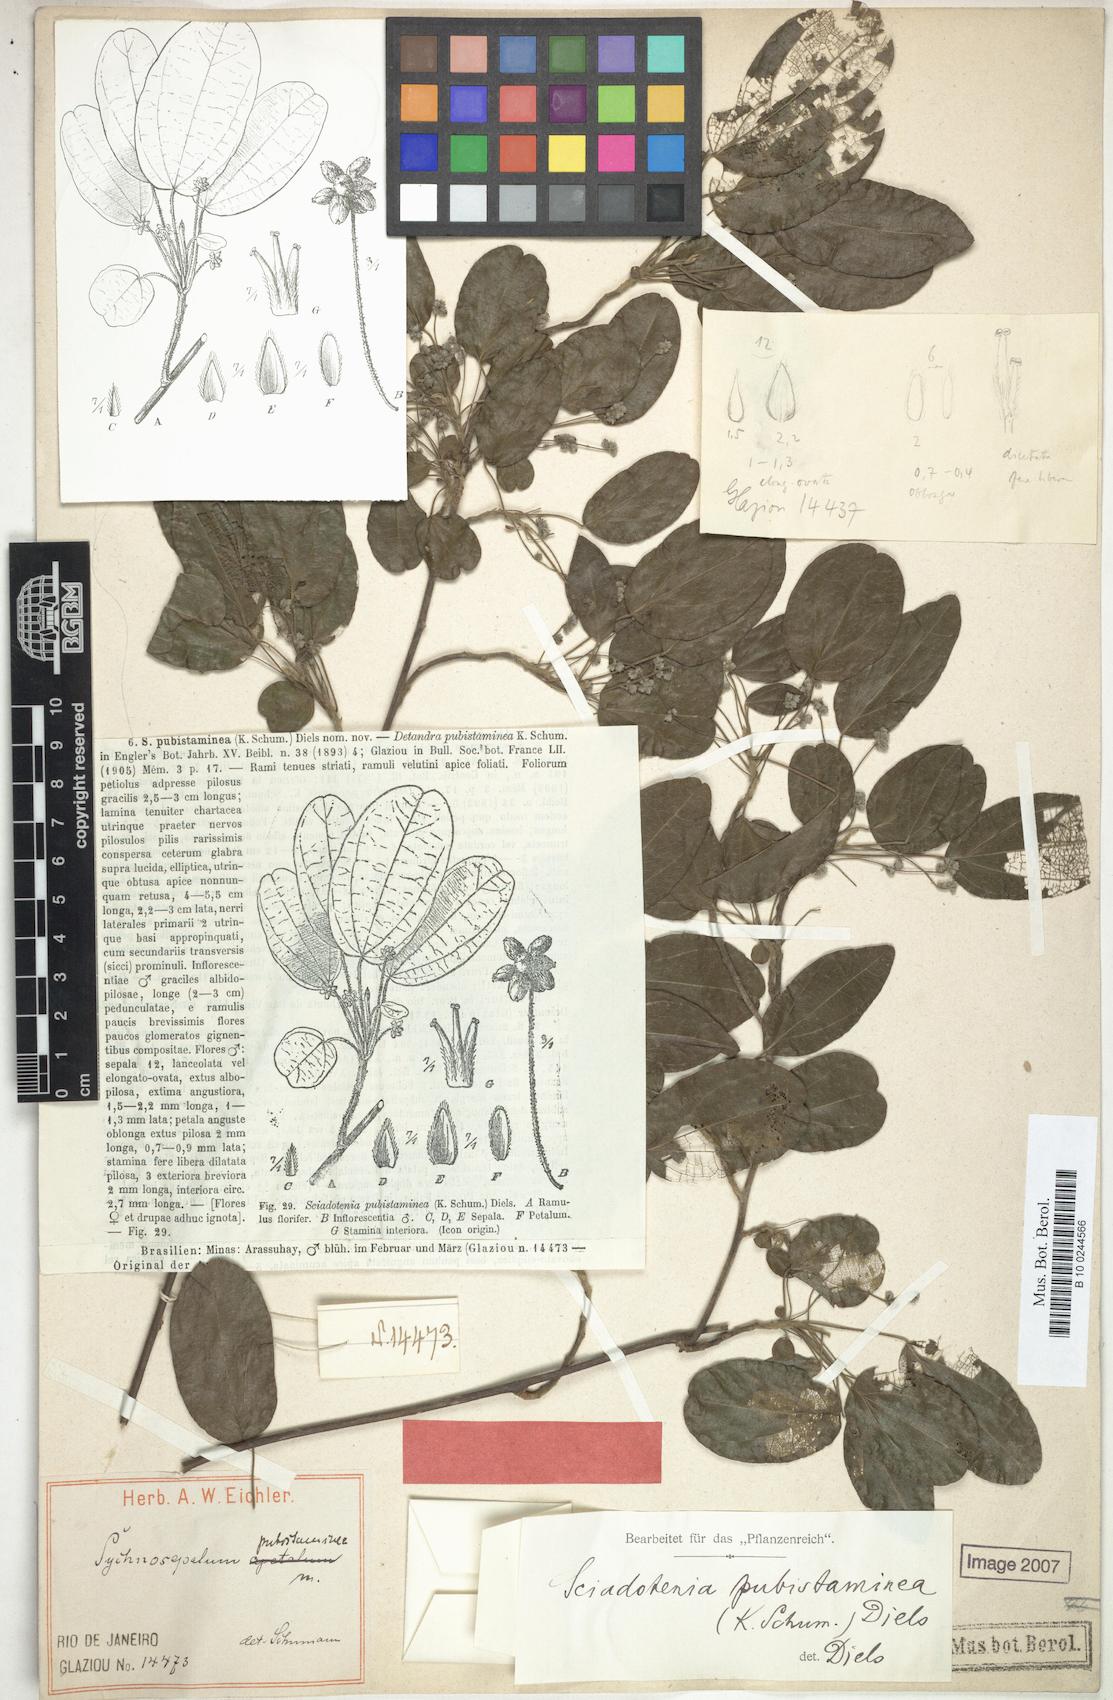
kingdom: Plantae
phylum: Tracheophyta
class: Magnoliopsida
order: Ranunculales
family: Menispermaceae
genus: Sciadotenia
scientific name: Sciadotenia pubistaminea
